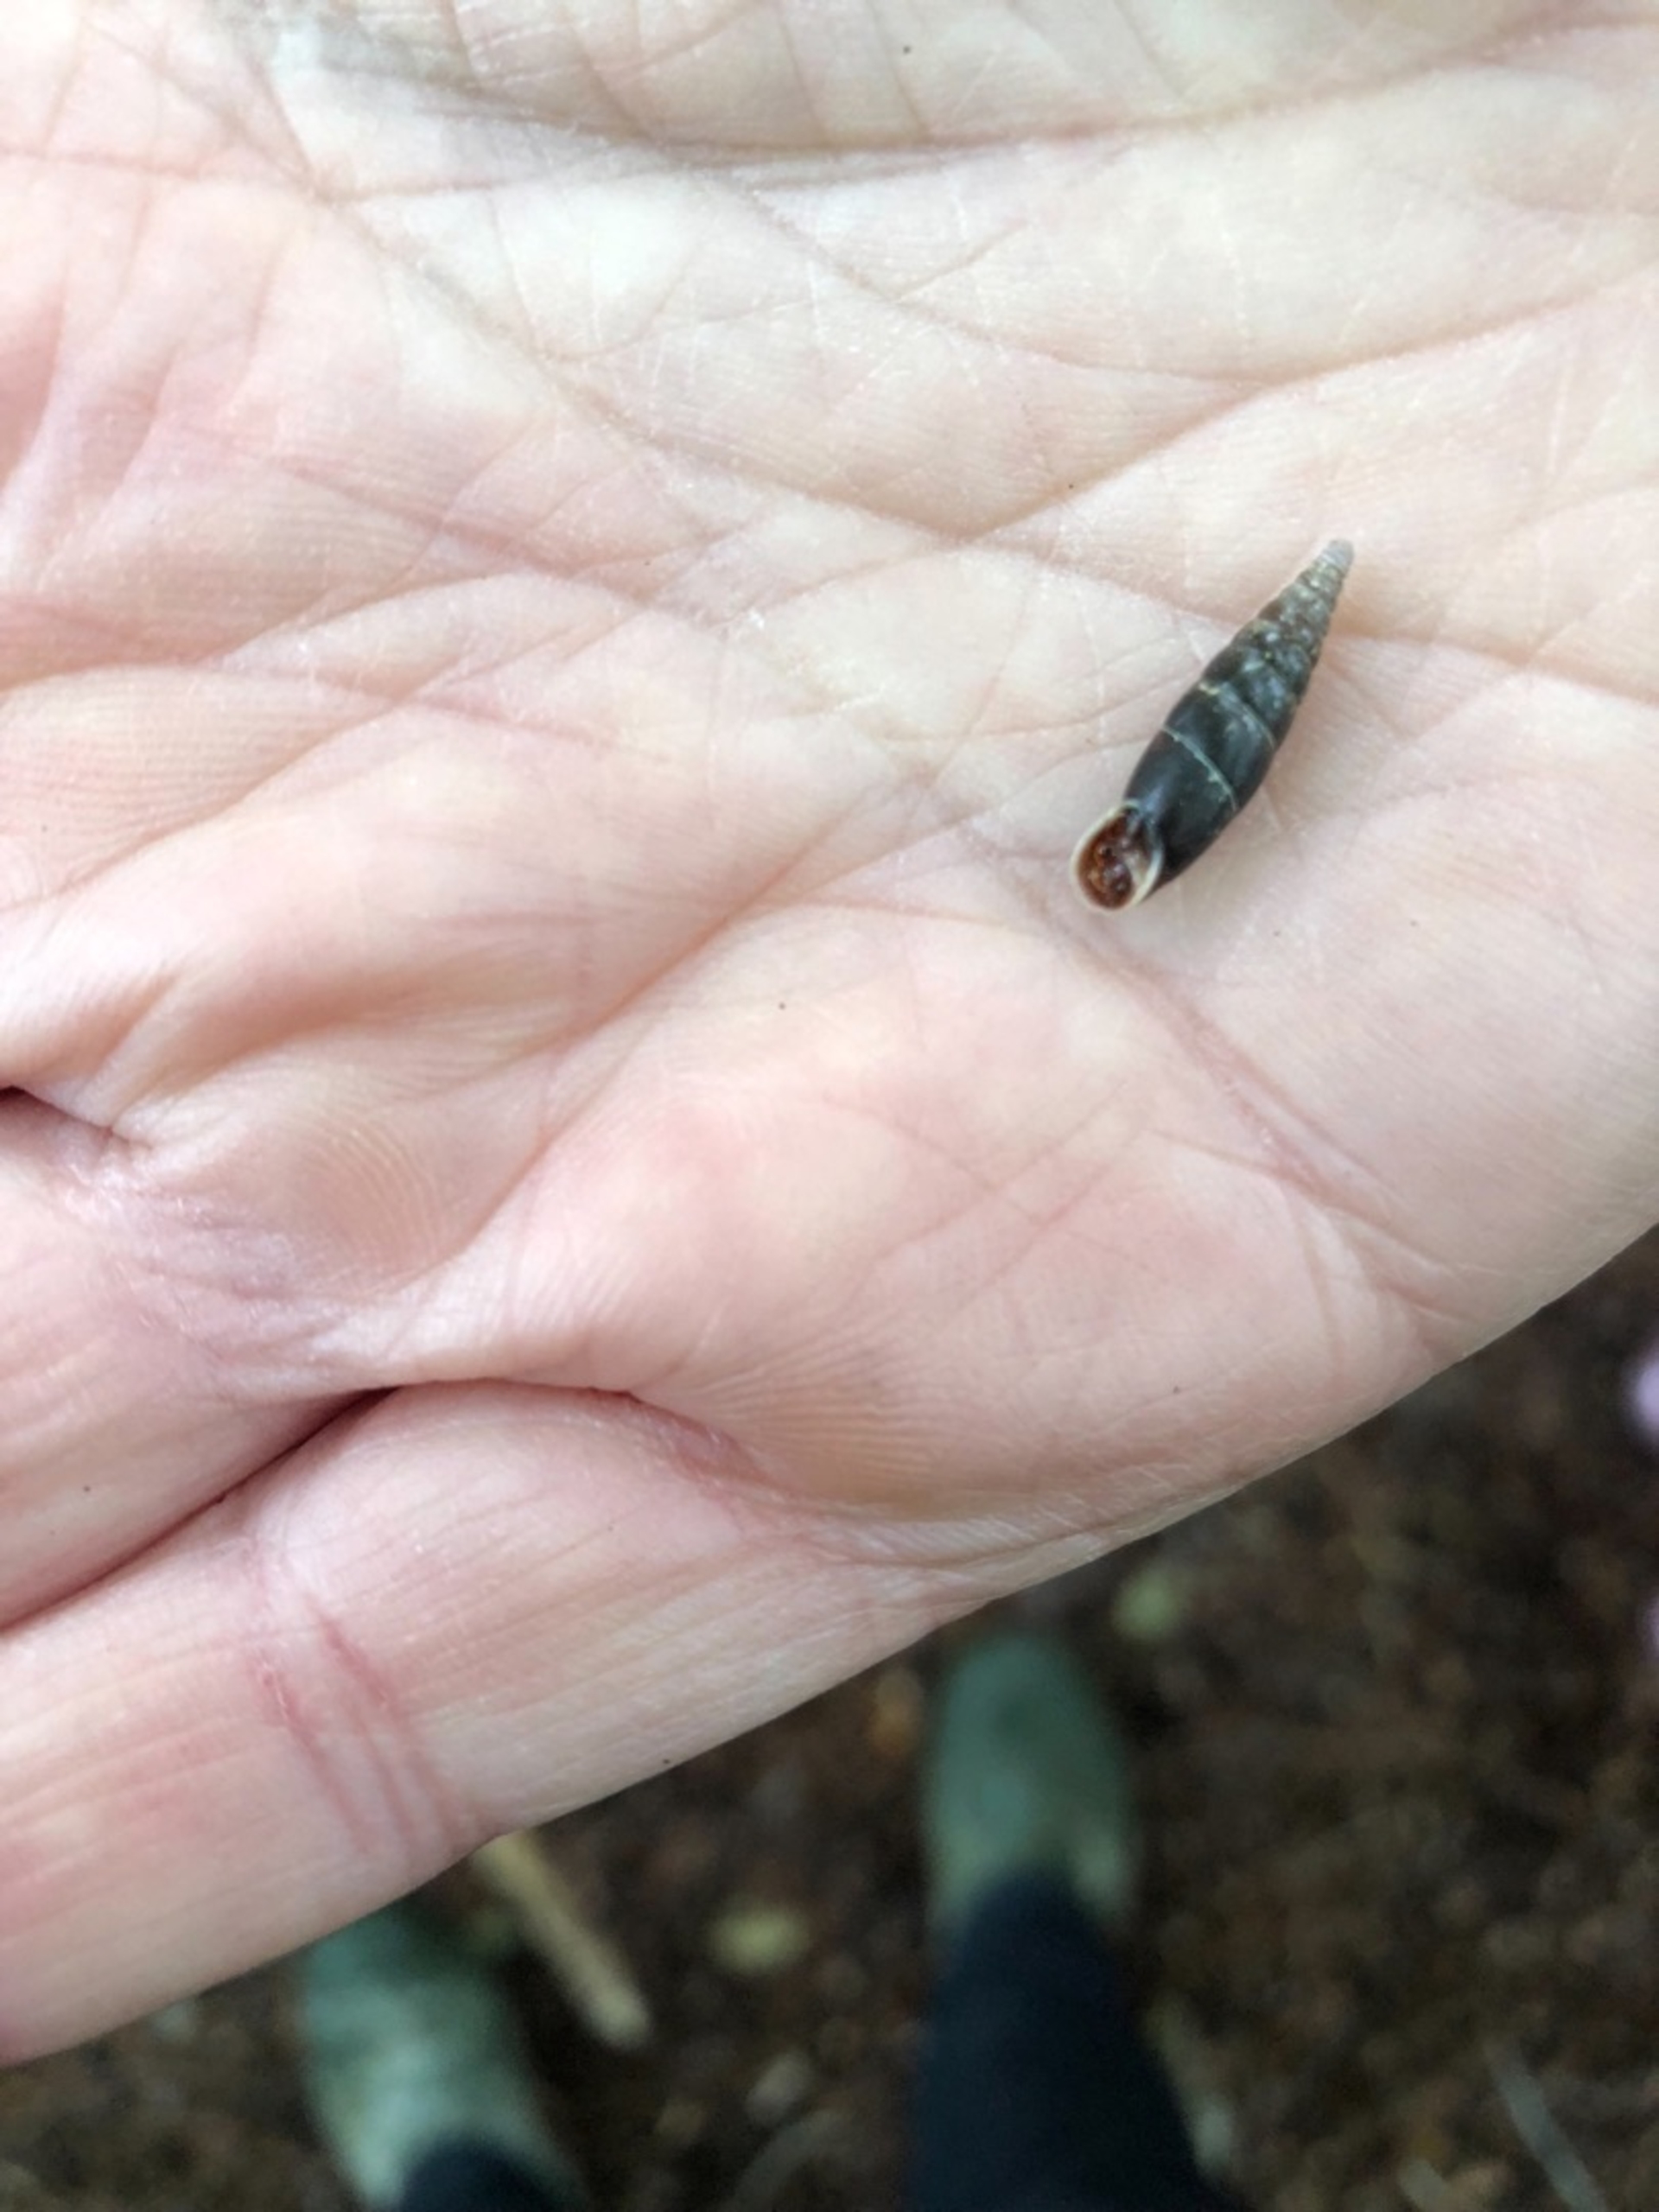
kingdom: Animalia
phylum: Mollusca
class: Gastropoda
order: Stylommatophora
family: Clausiliidae
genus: Cochlodina
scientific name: Cochlodina laminata
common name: Glat foldsnegl
